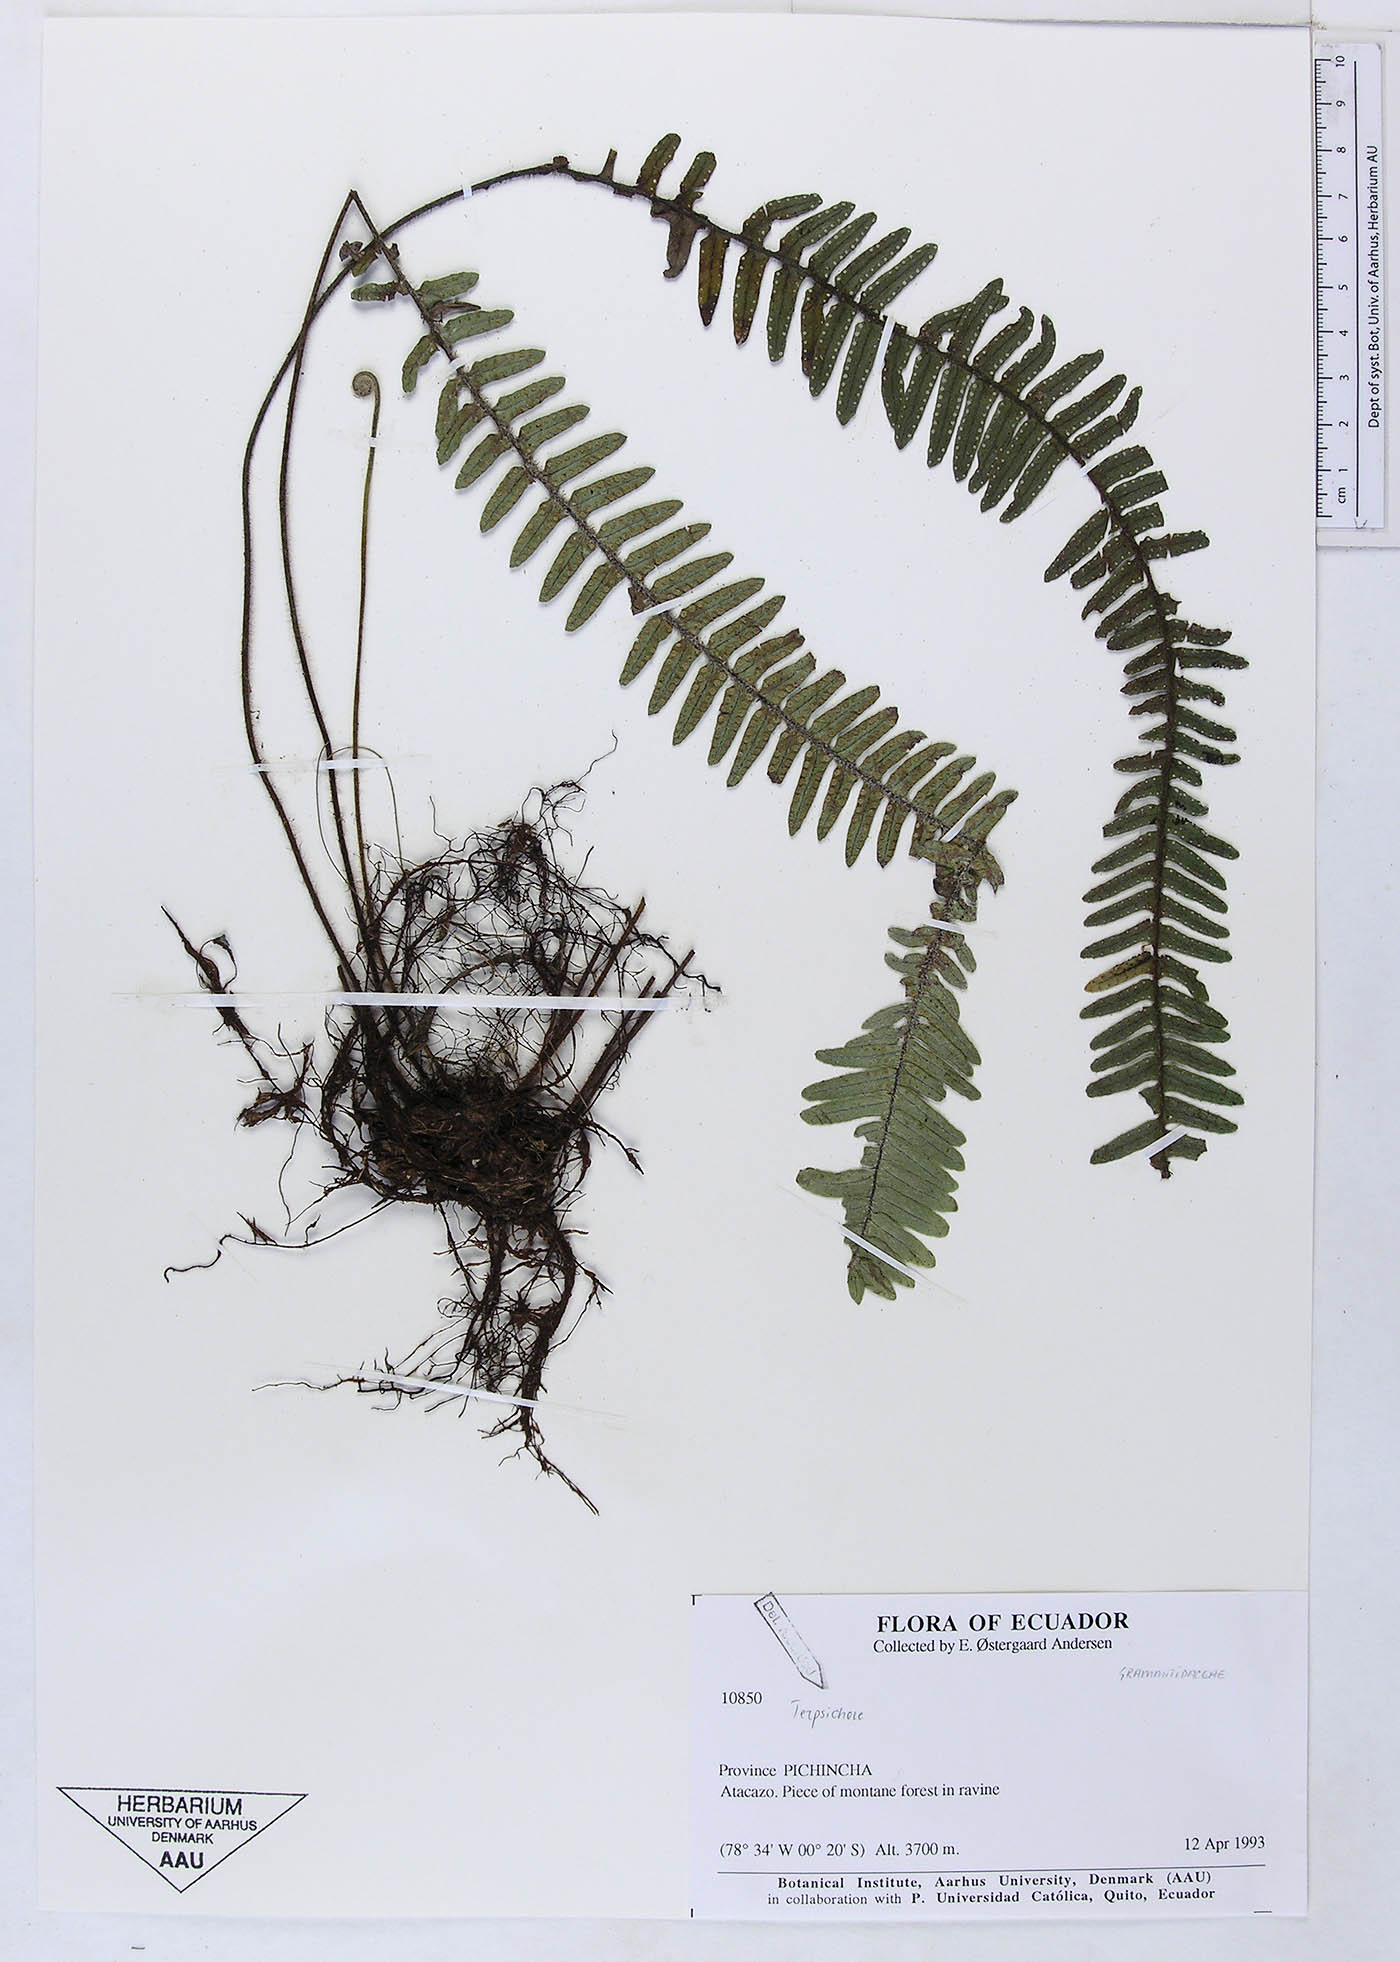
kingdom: Plantae
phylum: Tracheophyta
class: Polypodiopsida
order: Polypodiales
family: Polypodiaceae
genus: Terpsichore
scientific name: Terpsichore
